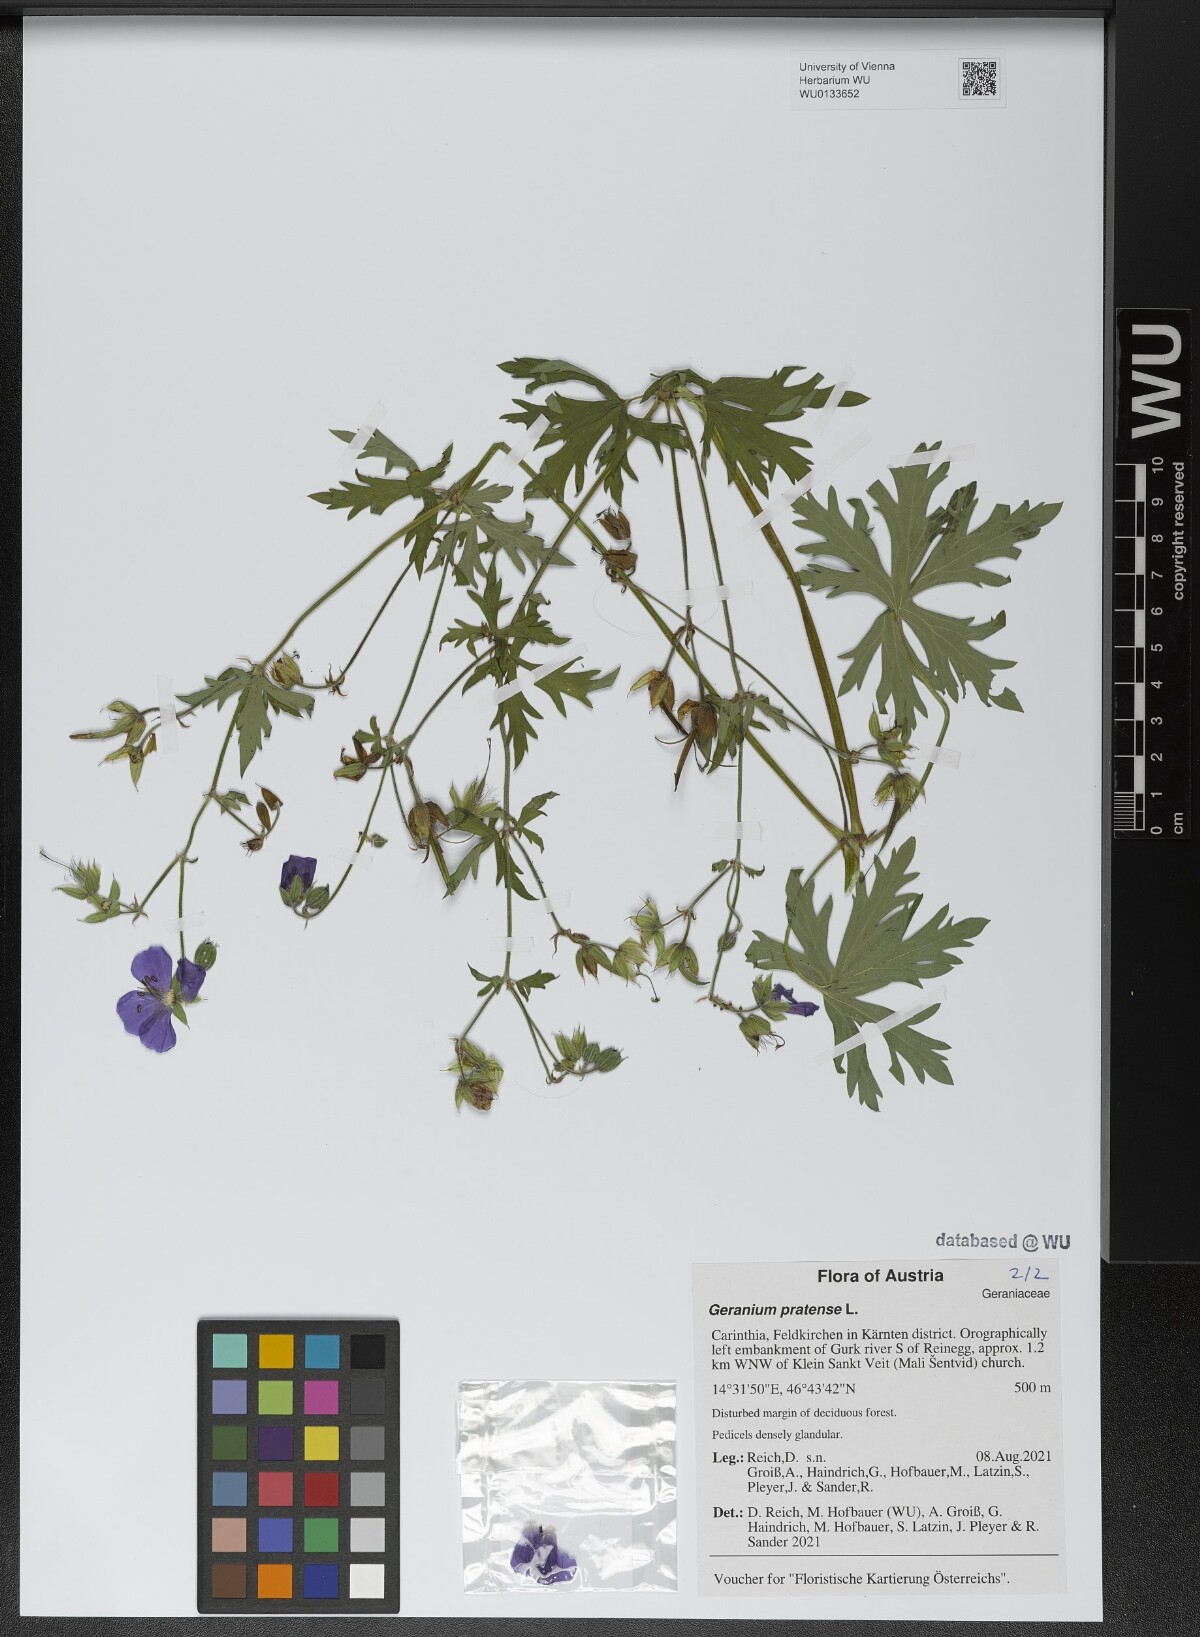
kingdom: Plantae
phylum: Tracheophyta
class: Magnoliopsida
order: Geraniales
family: Geraniaceae
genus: Geranium
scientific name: Geranium pratense
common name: Meadow crane's-bill
